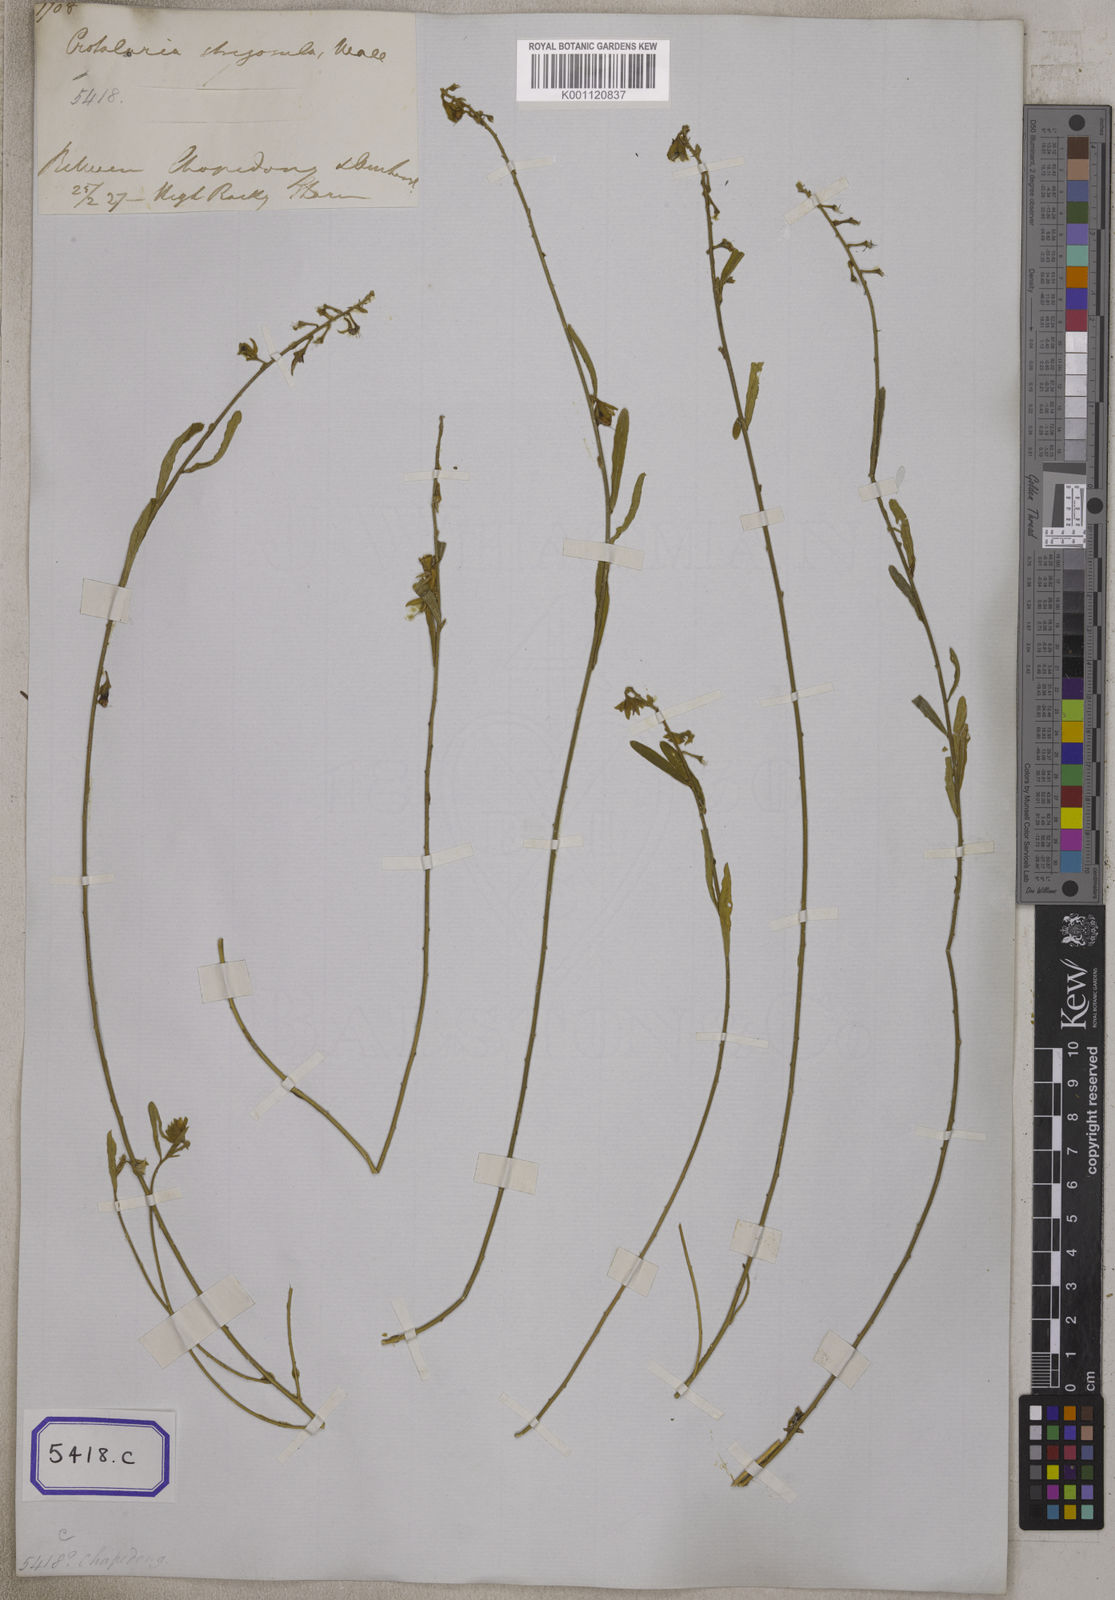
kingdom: Plantae
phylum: Tracheophyta
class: Magnoliopsida
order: Fabales
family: Fabaceae
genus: Crotalaria
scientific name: Crotalaria albida
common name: Taiwan crotalaria
